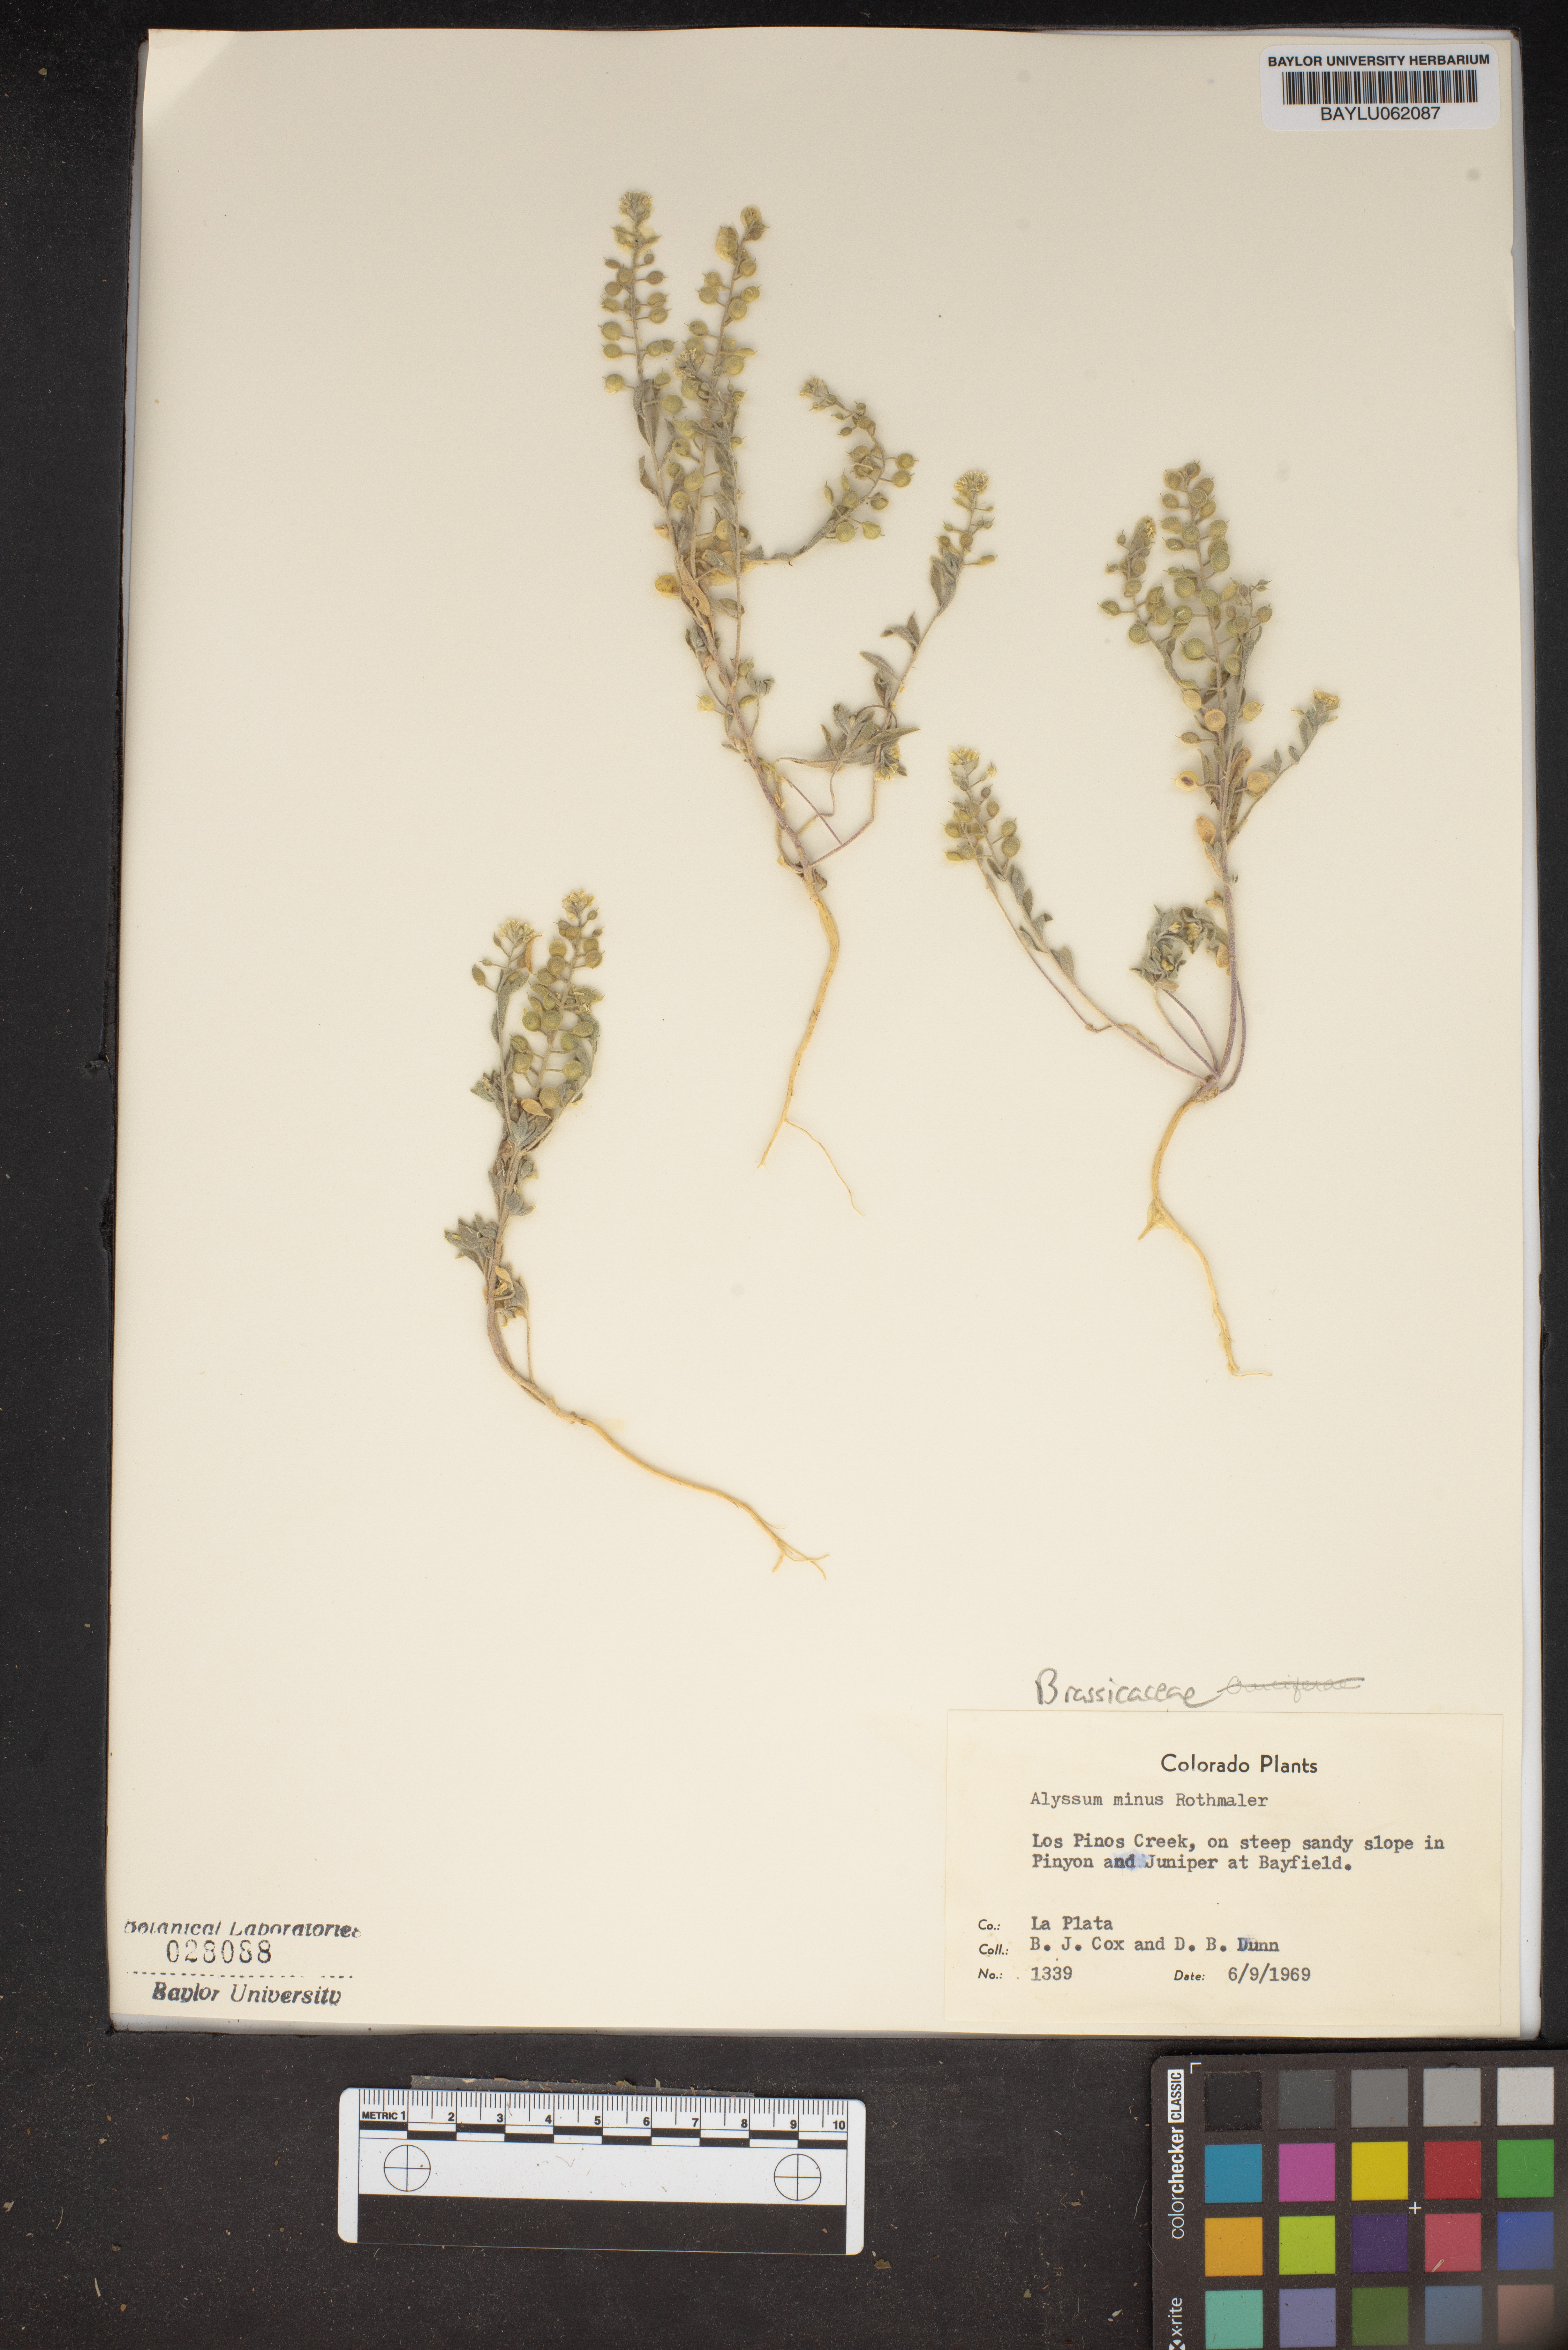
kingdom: Plantae
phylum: Tracheophyta
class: Magnoliopsida
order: Brassicales
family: Brassicaceae
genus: Alyssum
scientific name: Alyssum simplex
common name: Alyssum
